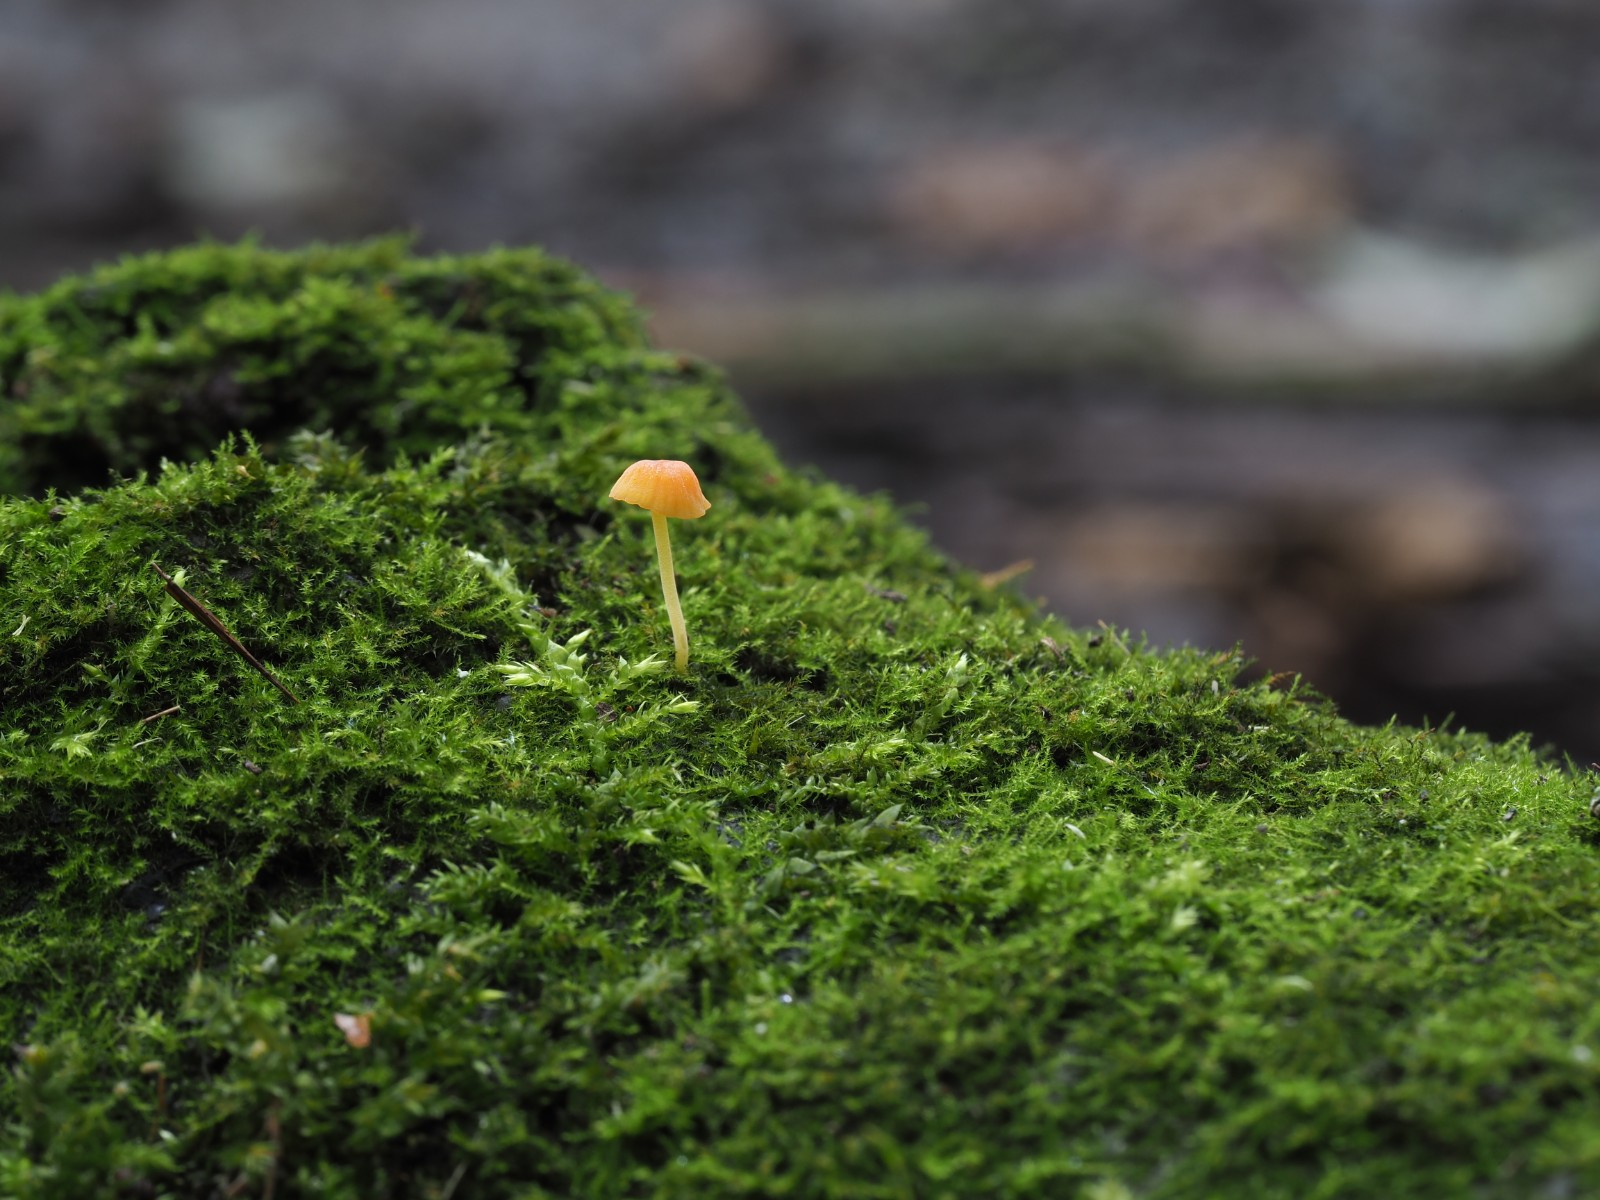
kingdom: Fungi
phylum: Basidiomycota
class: Agaricomycetes
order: Agaricales
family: Mycenaceae
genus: Mycena
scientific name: Mycena acicula
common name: orange huesvamp
